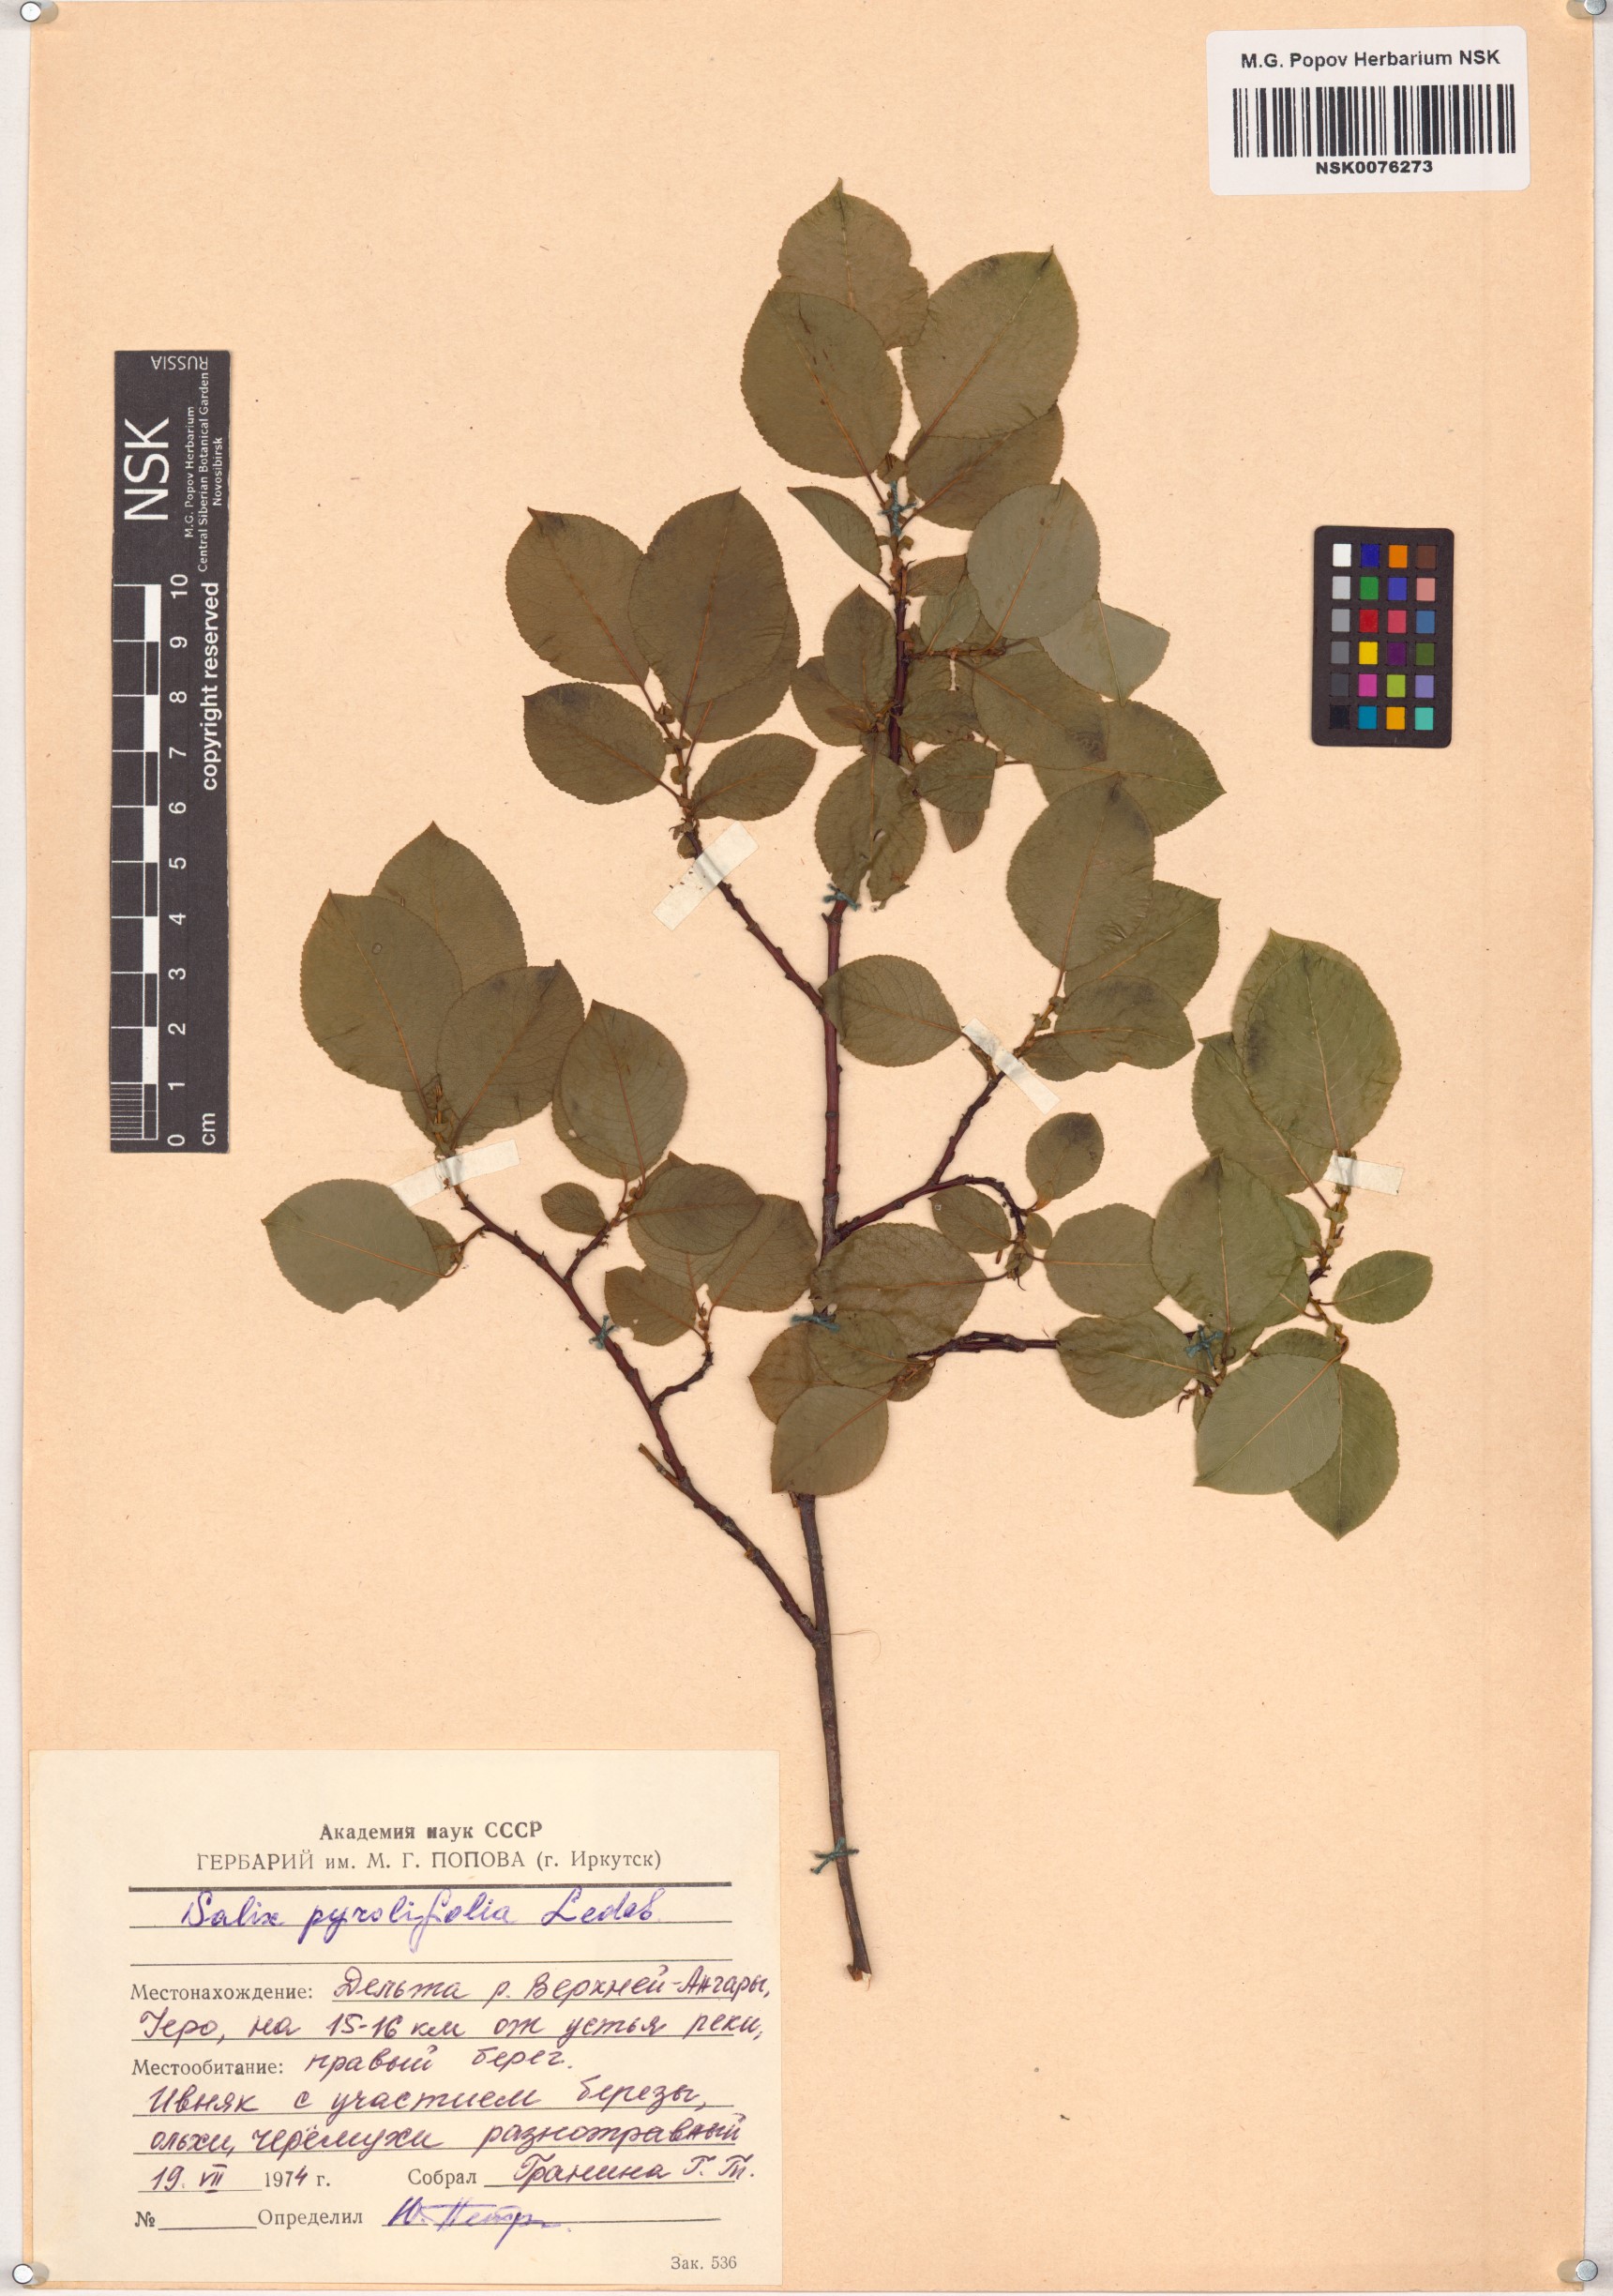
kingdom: Plantae
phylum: Tracheophyta
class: Magnoliopsida
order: Malpighiales
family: Salicaceae
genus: Salix
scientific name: Salix pyrolifolia
